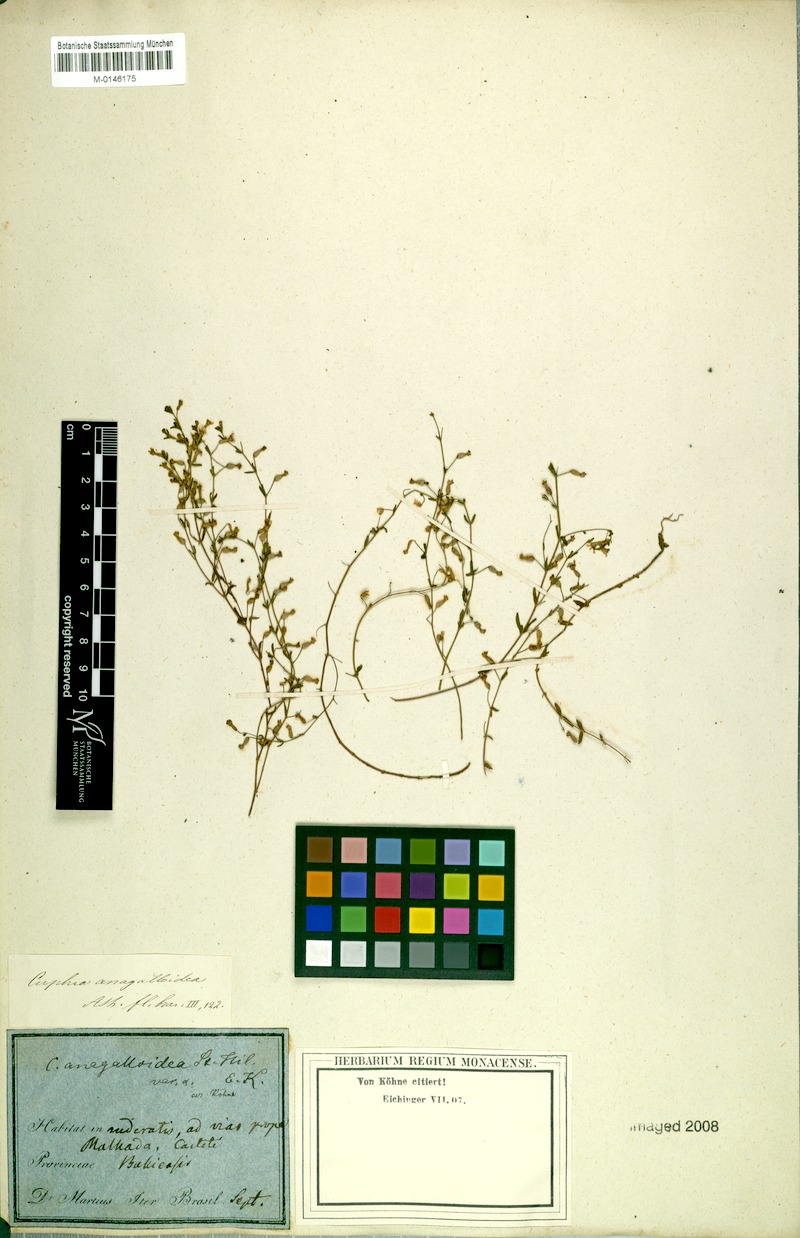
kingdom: Plantae
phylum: Tracheophyta
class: Magnoliopsida
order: Myrtales
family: Lythraceae
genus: Cuphea
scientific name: Cuphea anagalloidea
